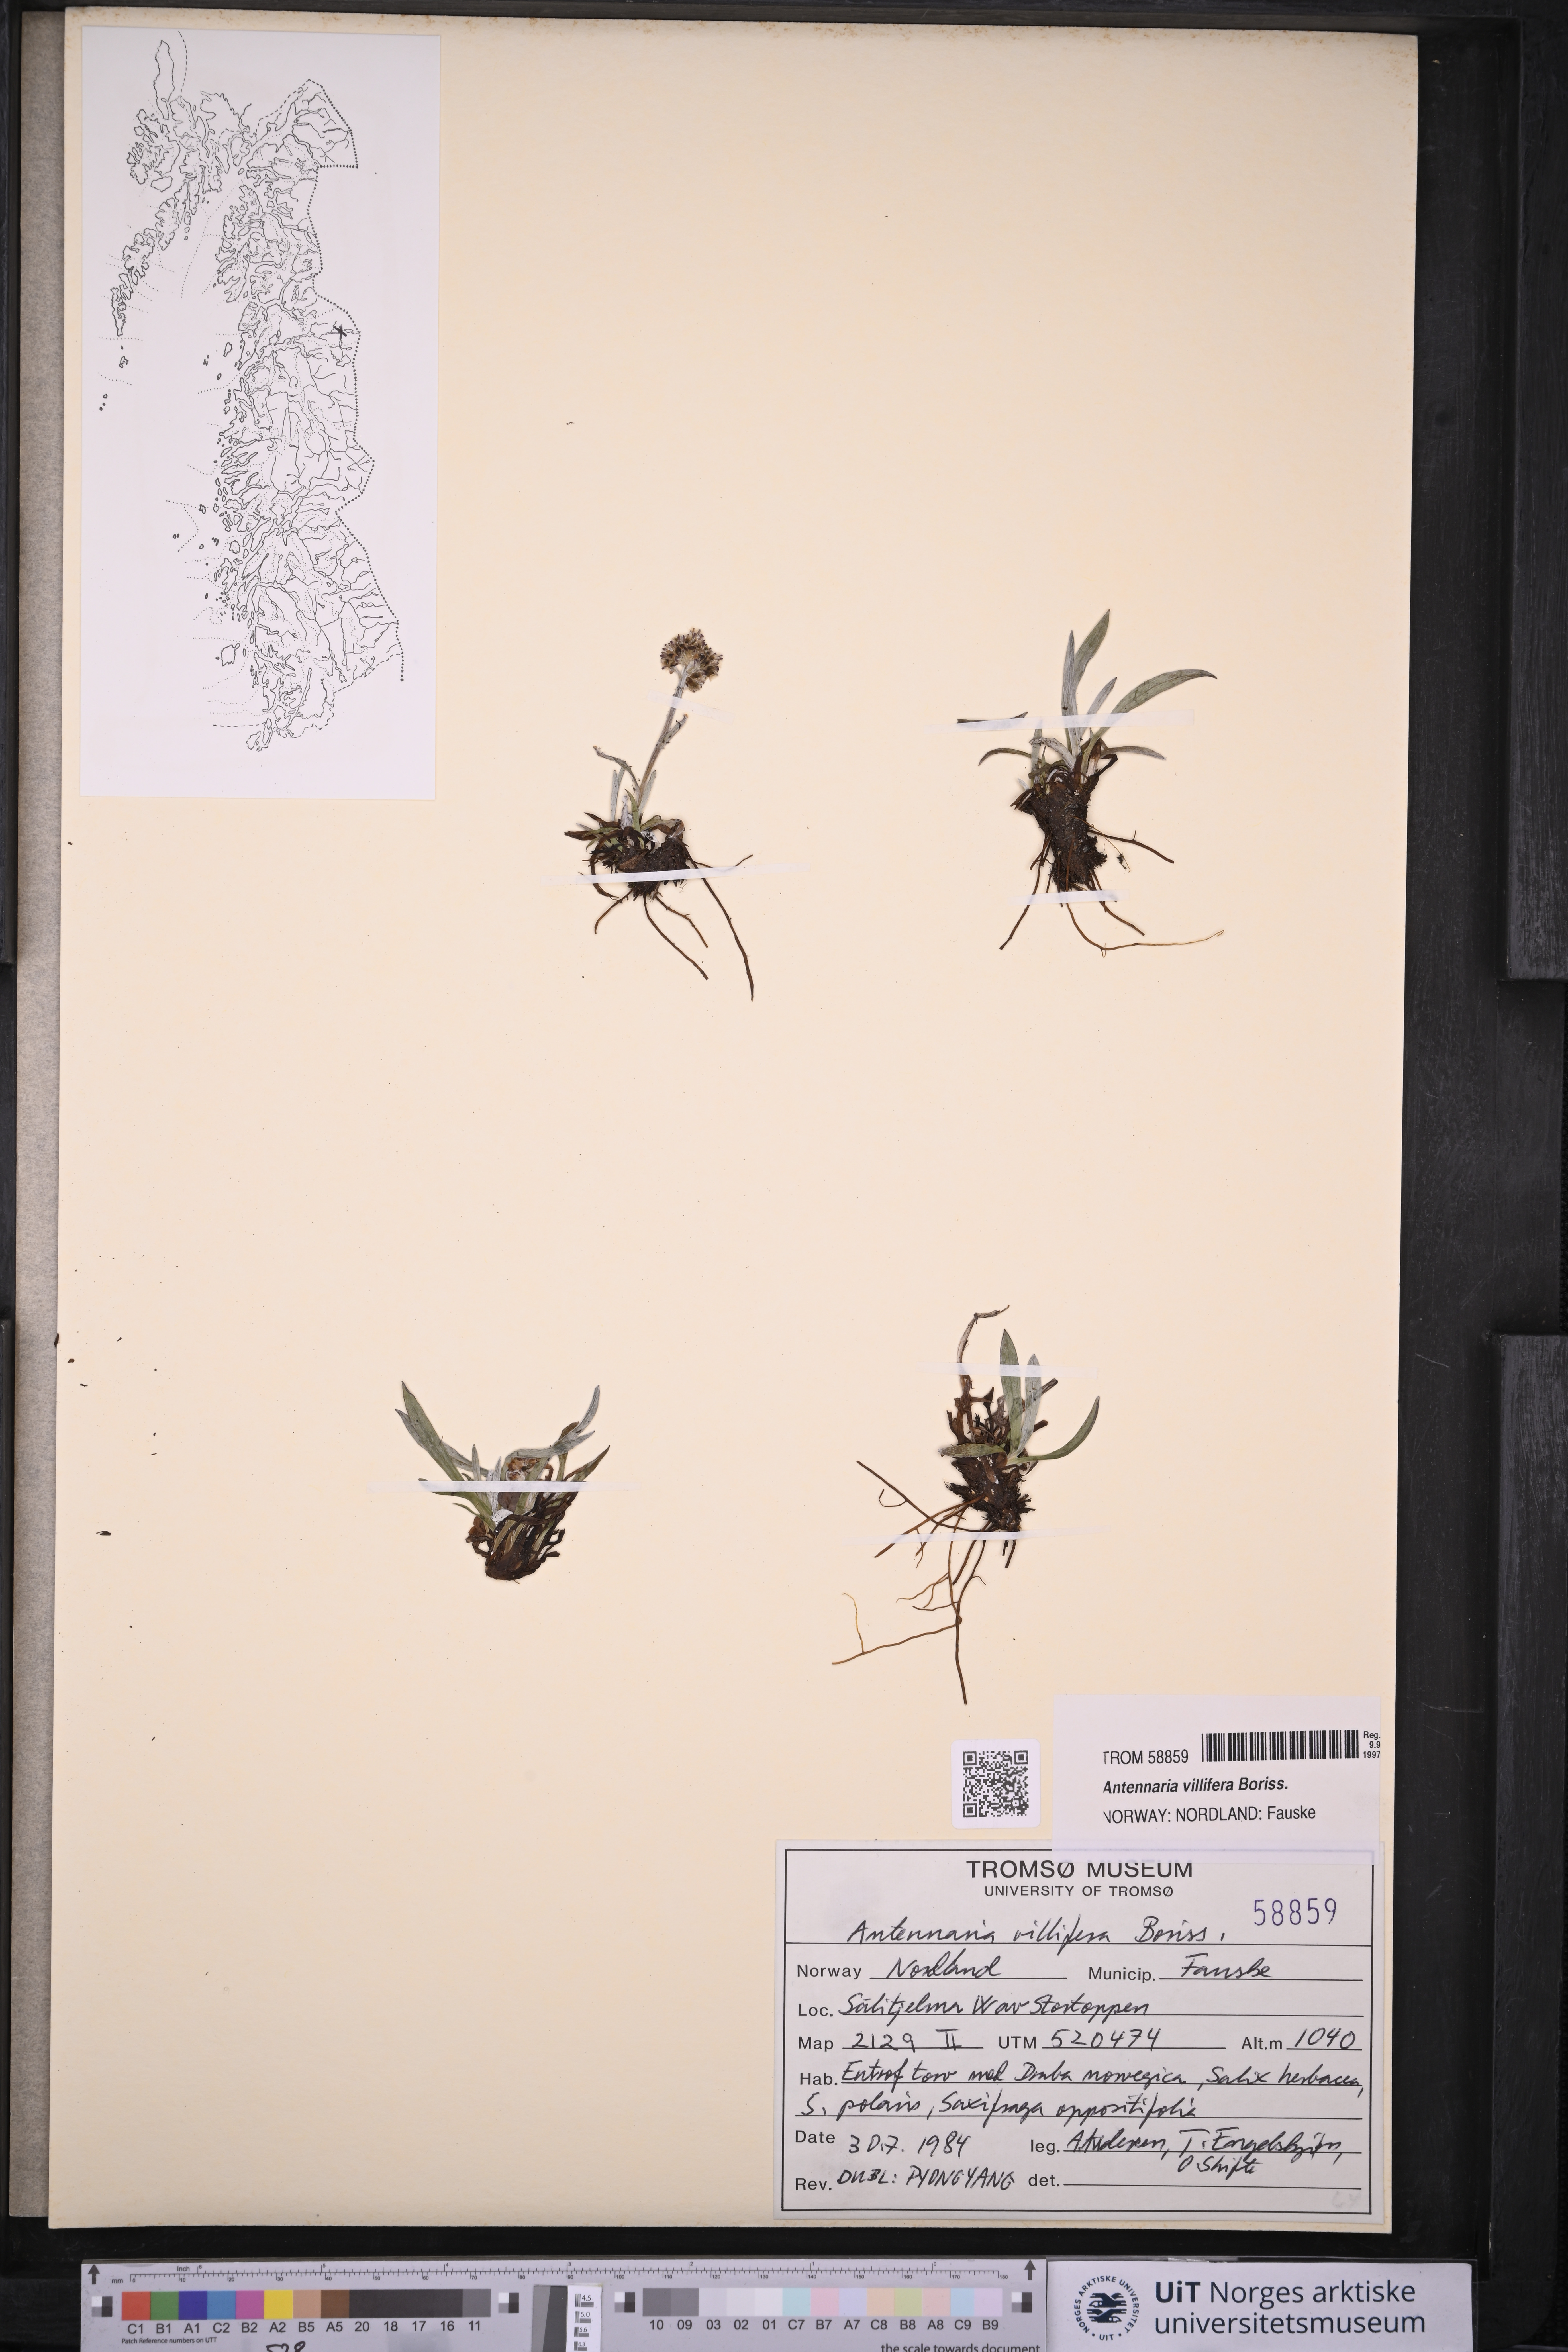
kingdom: Plantae
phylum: Tracheophyta
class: Magnoliopsida
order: Asterales
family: Asteraceae
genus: Antennaria
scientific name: Antennaria lanata
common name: Woolly pussytoes
